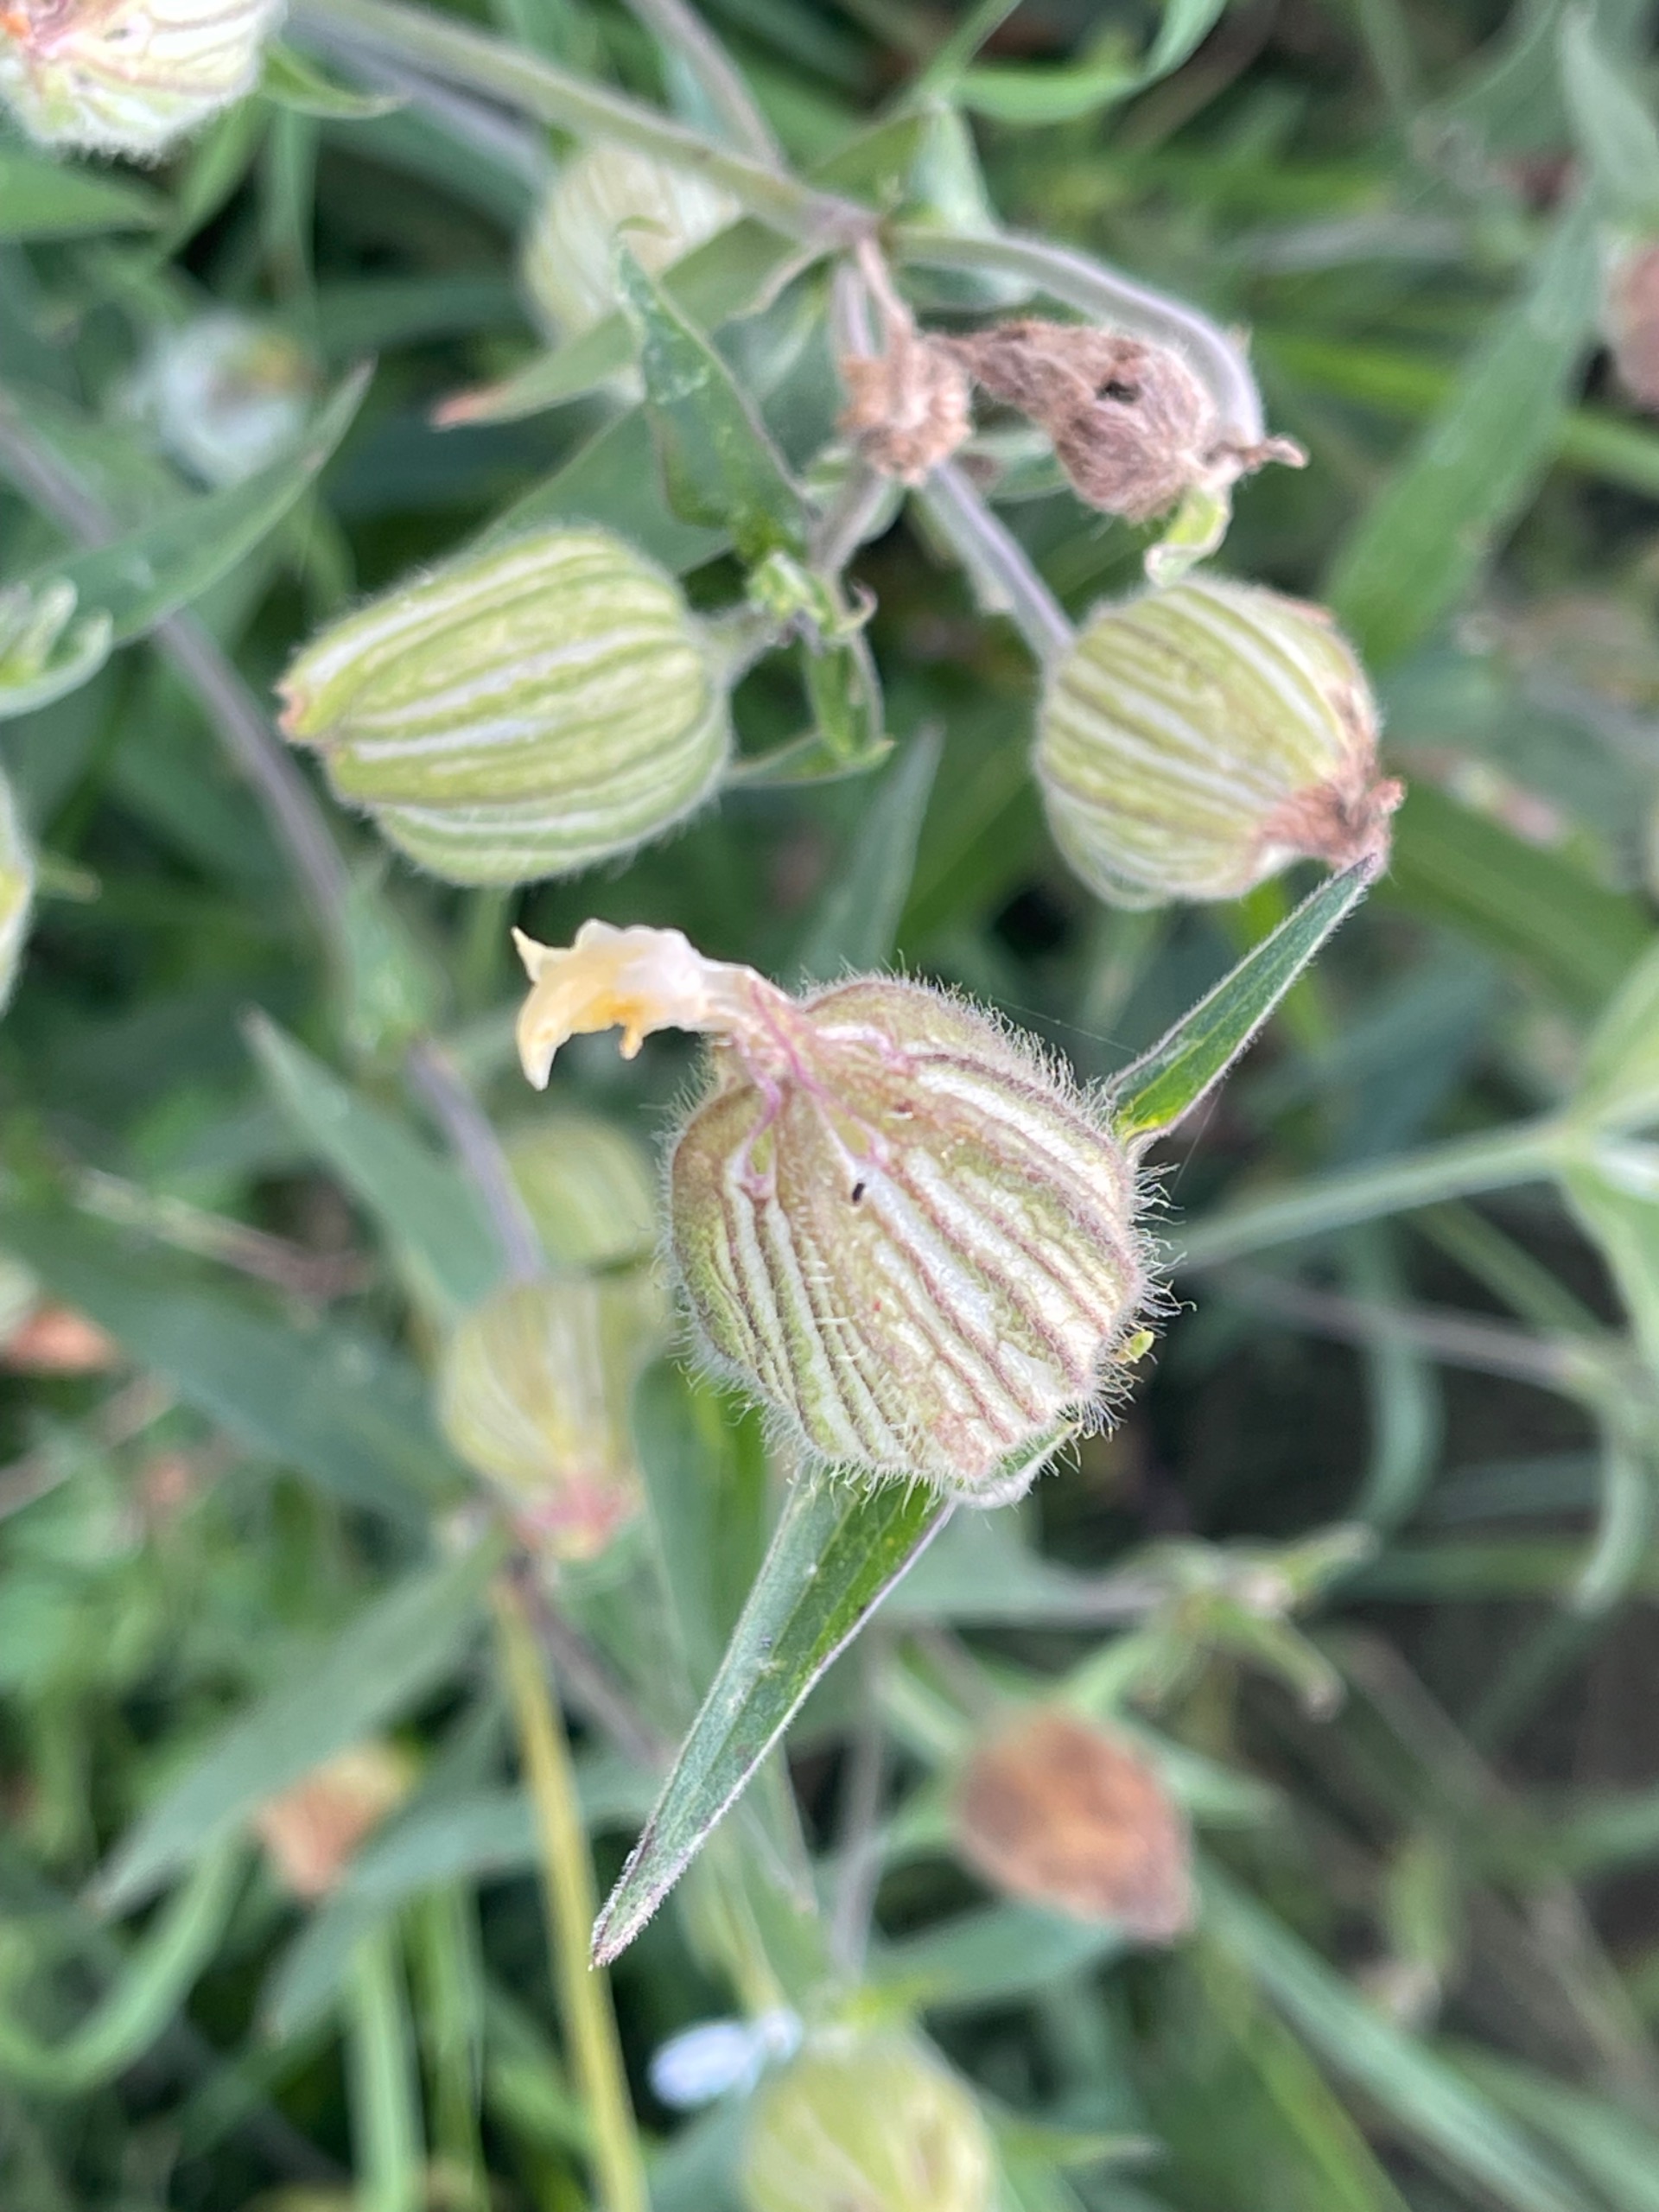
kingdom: Plantae
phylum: Tracheophyta
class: Magnoliopsida
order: Caryophyllales
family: Caryophyllaceae
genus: Silene
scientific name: Silene latifolia
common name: Aftenpragtstjerne
